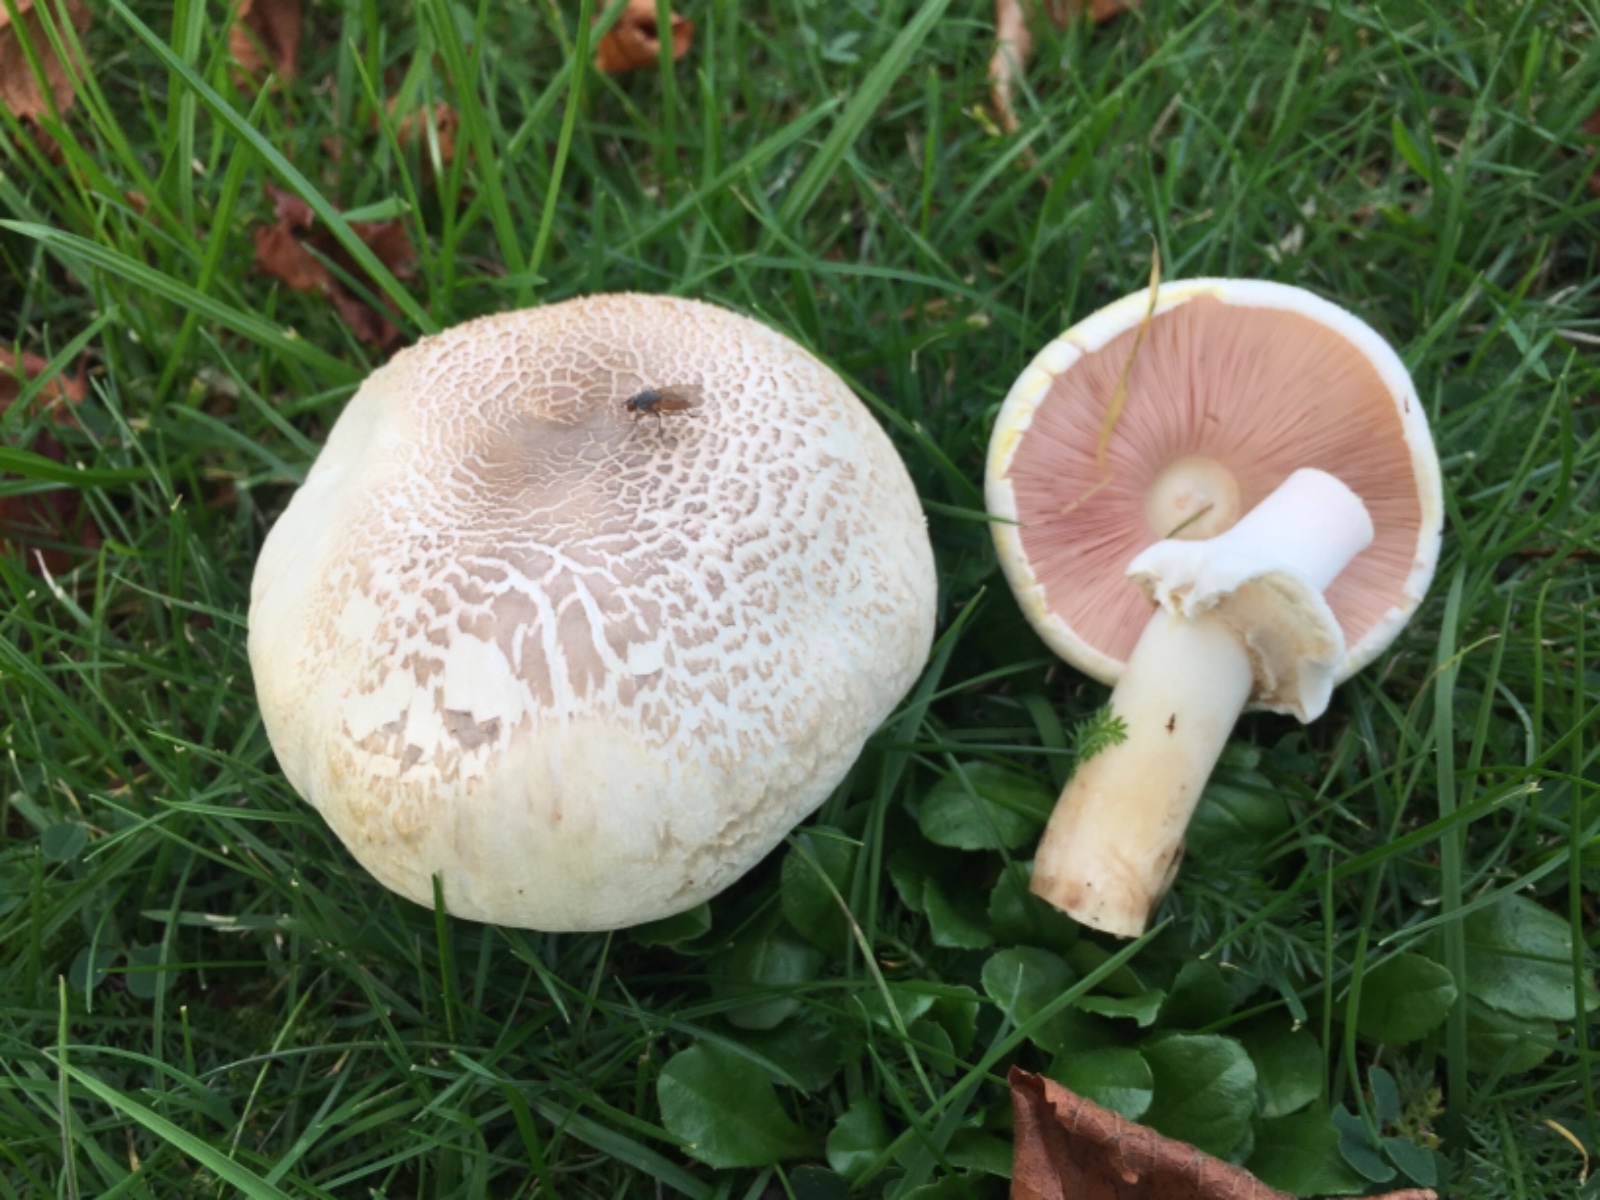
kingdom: Fungi
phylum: Basidiomycota
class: Agaricomycetes
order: Agaricales
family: Agaricaceae
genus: Agaricus
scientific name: Agaricus xanthodermus
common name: karbol-champignon
